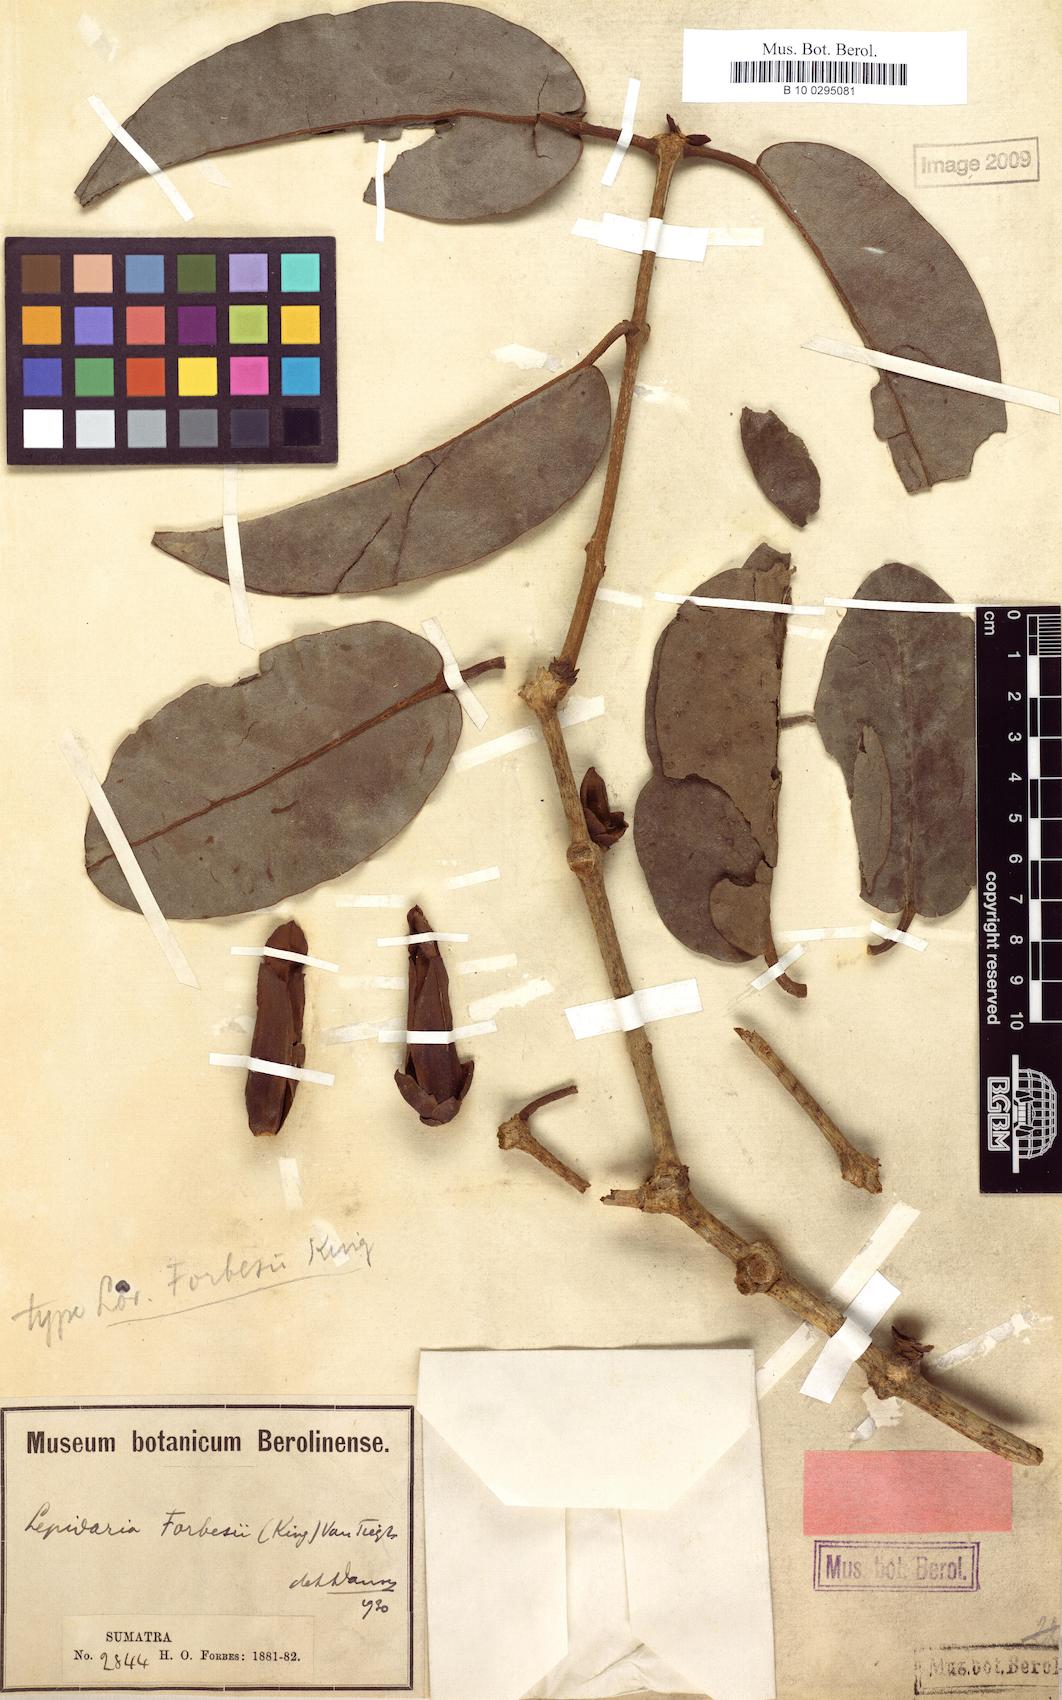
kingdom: Plantae
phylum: Tracheophyta
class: Magnoliopsida
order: Santalales
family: Loranthaceae
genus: Lepidaria
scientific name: Lepidaria kingii
